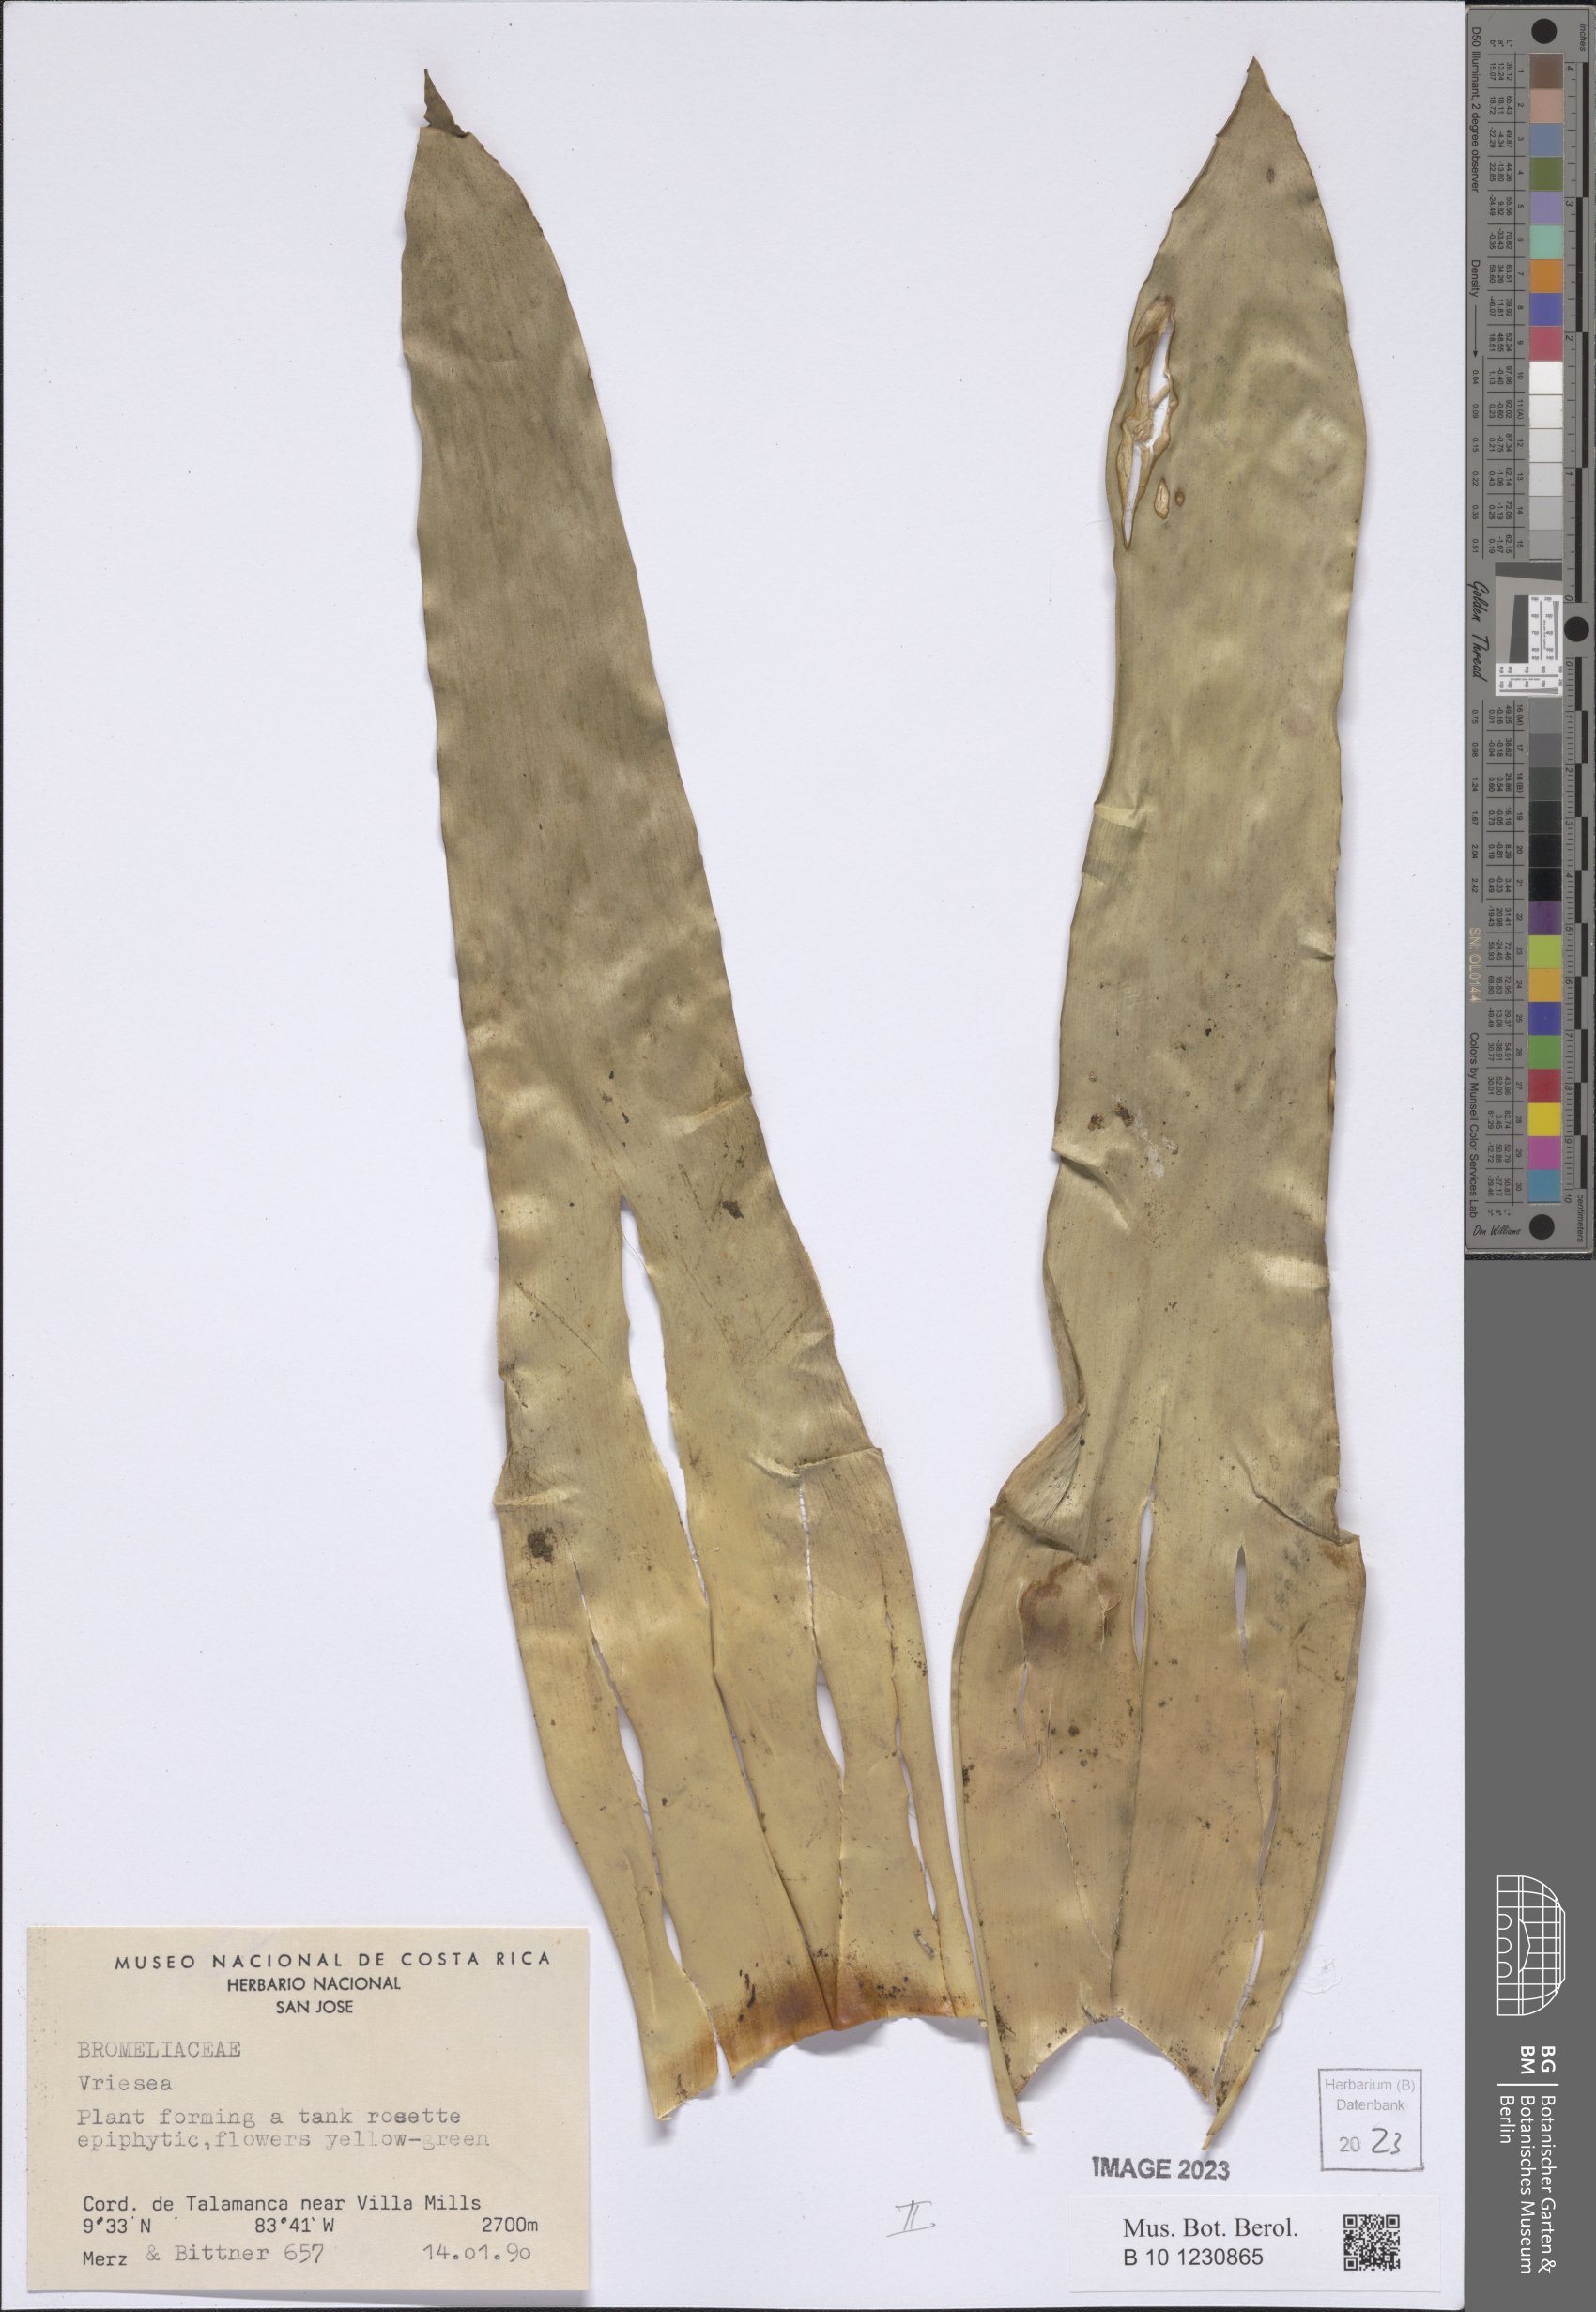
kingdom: Plantae
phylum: Tracheophyta
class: Liliopsida
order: Poales
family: Bromeliaceae
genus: Vriesea
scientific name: Vriesea
